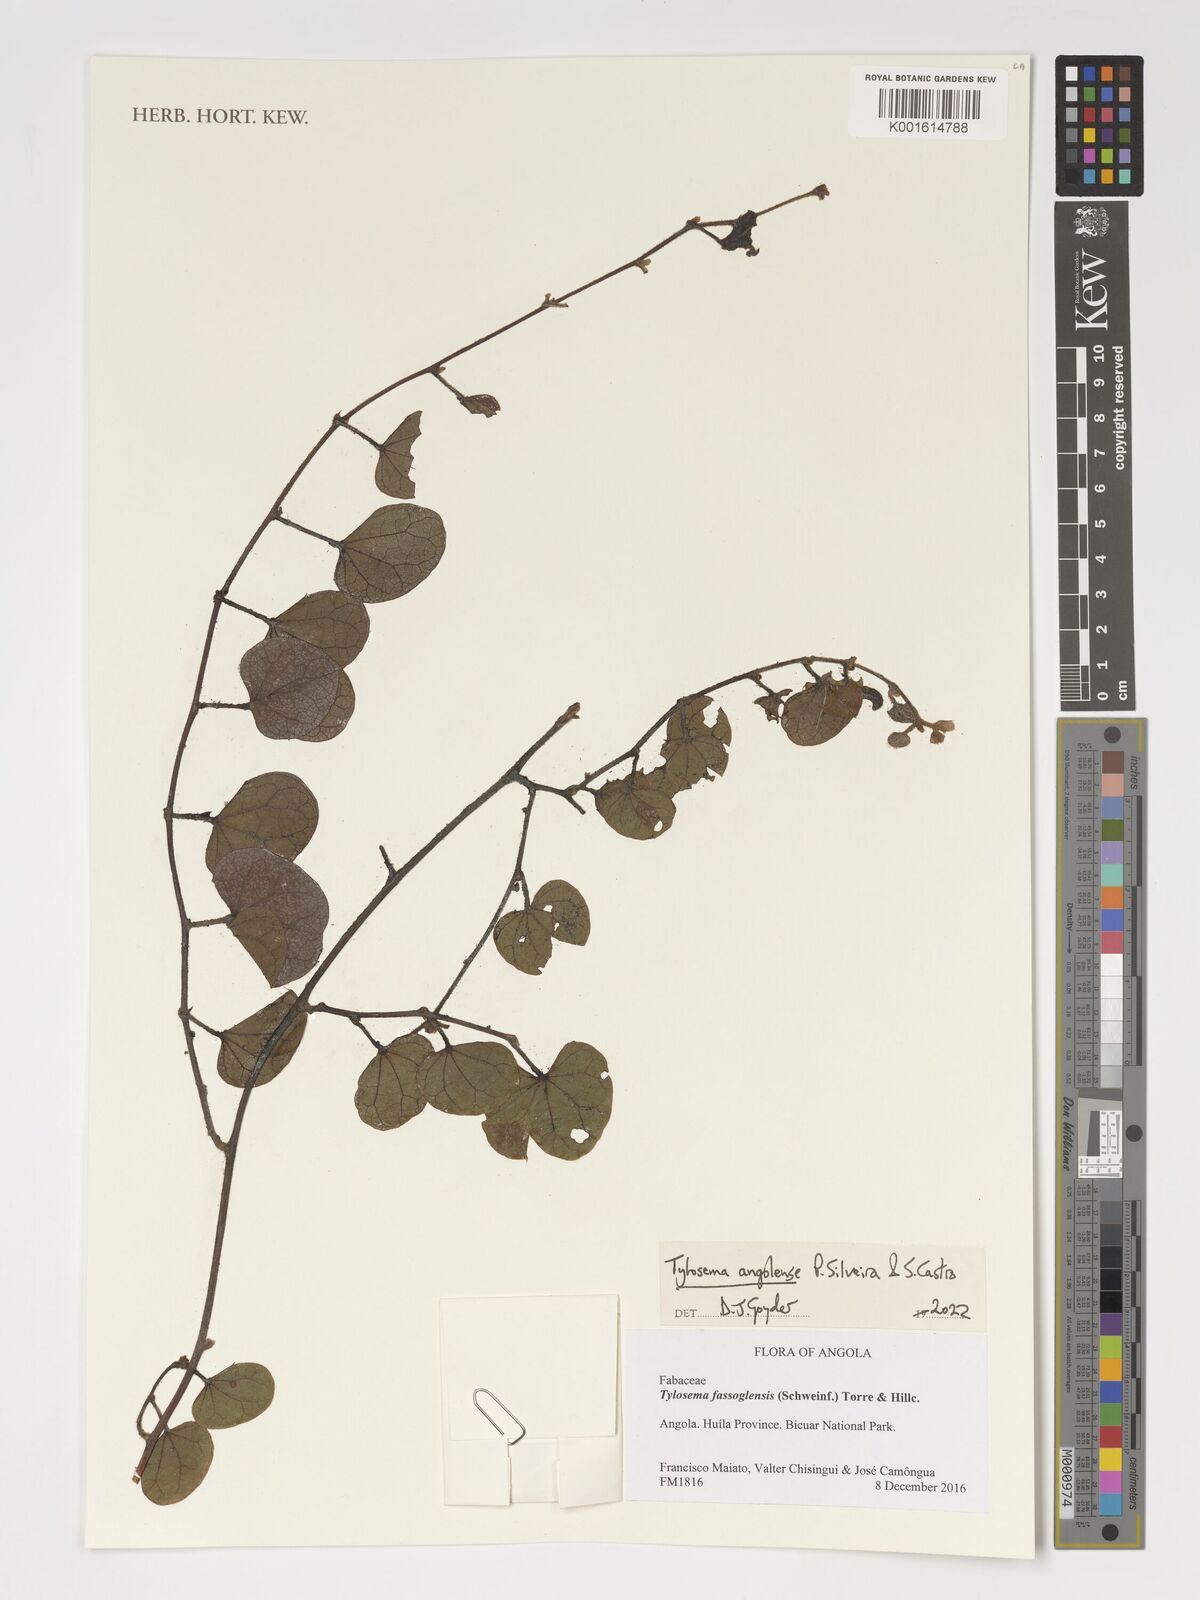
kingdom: Plantae
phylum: Tracheophyta
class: Magnoliopsida
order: Fabales
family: Fabaceae
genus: Tylosema
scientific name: Tylosema angolense
